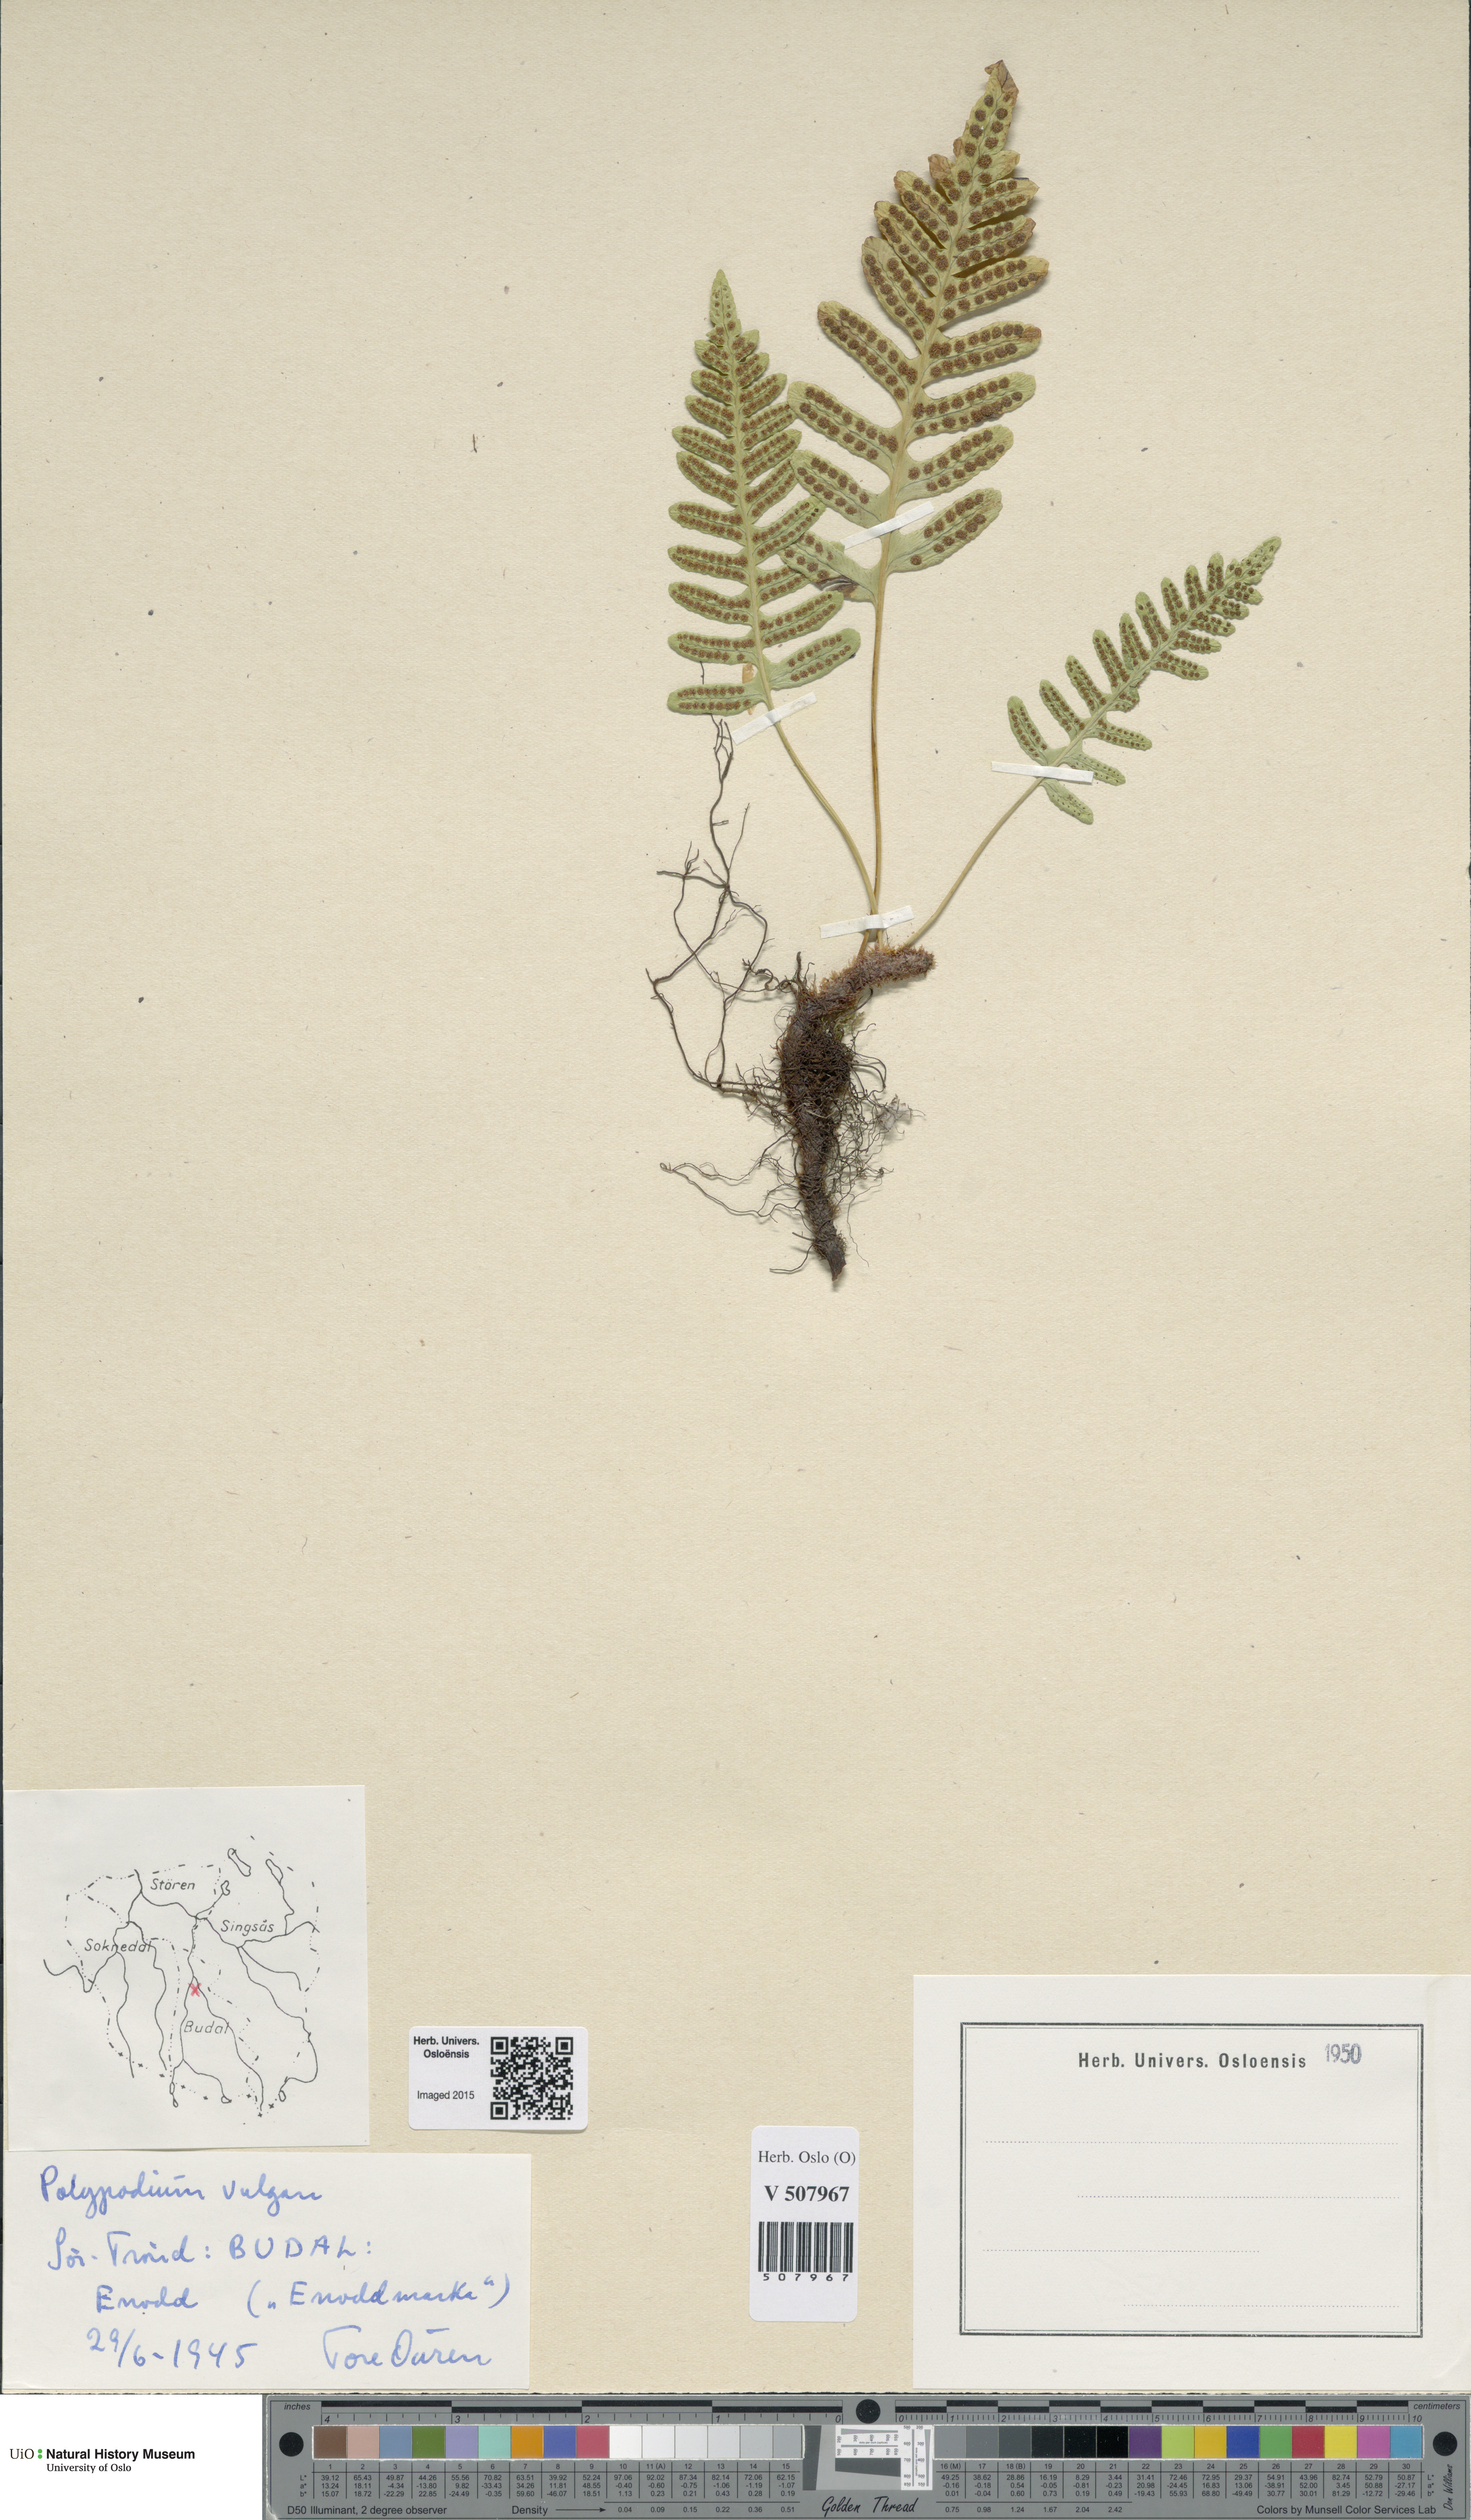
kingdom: Plantae
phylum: Tracheophyta
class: Polypodiopsida
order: Polypodiales
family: Polypodiaceae
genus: Polypodium
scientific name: Polypodium vulgare
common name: Common polypody
